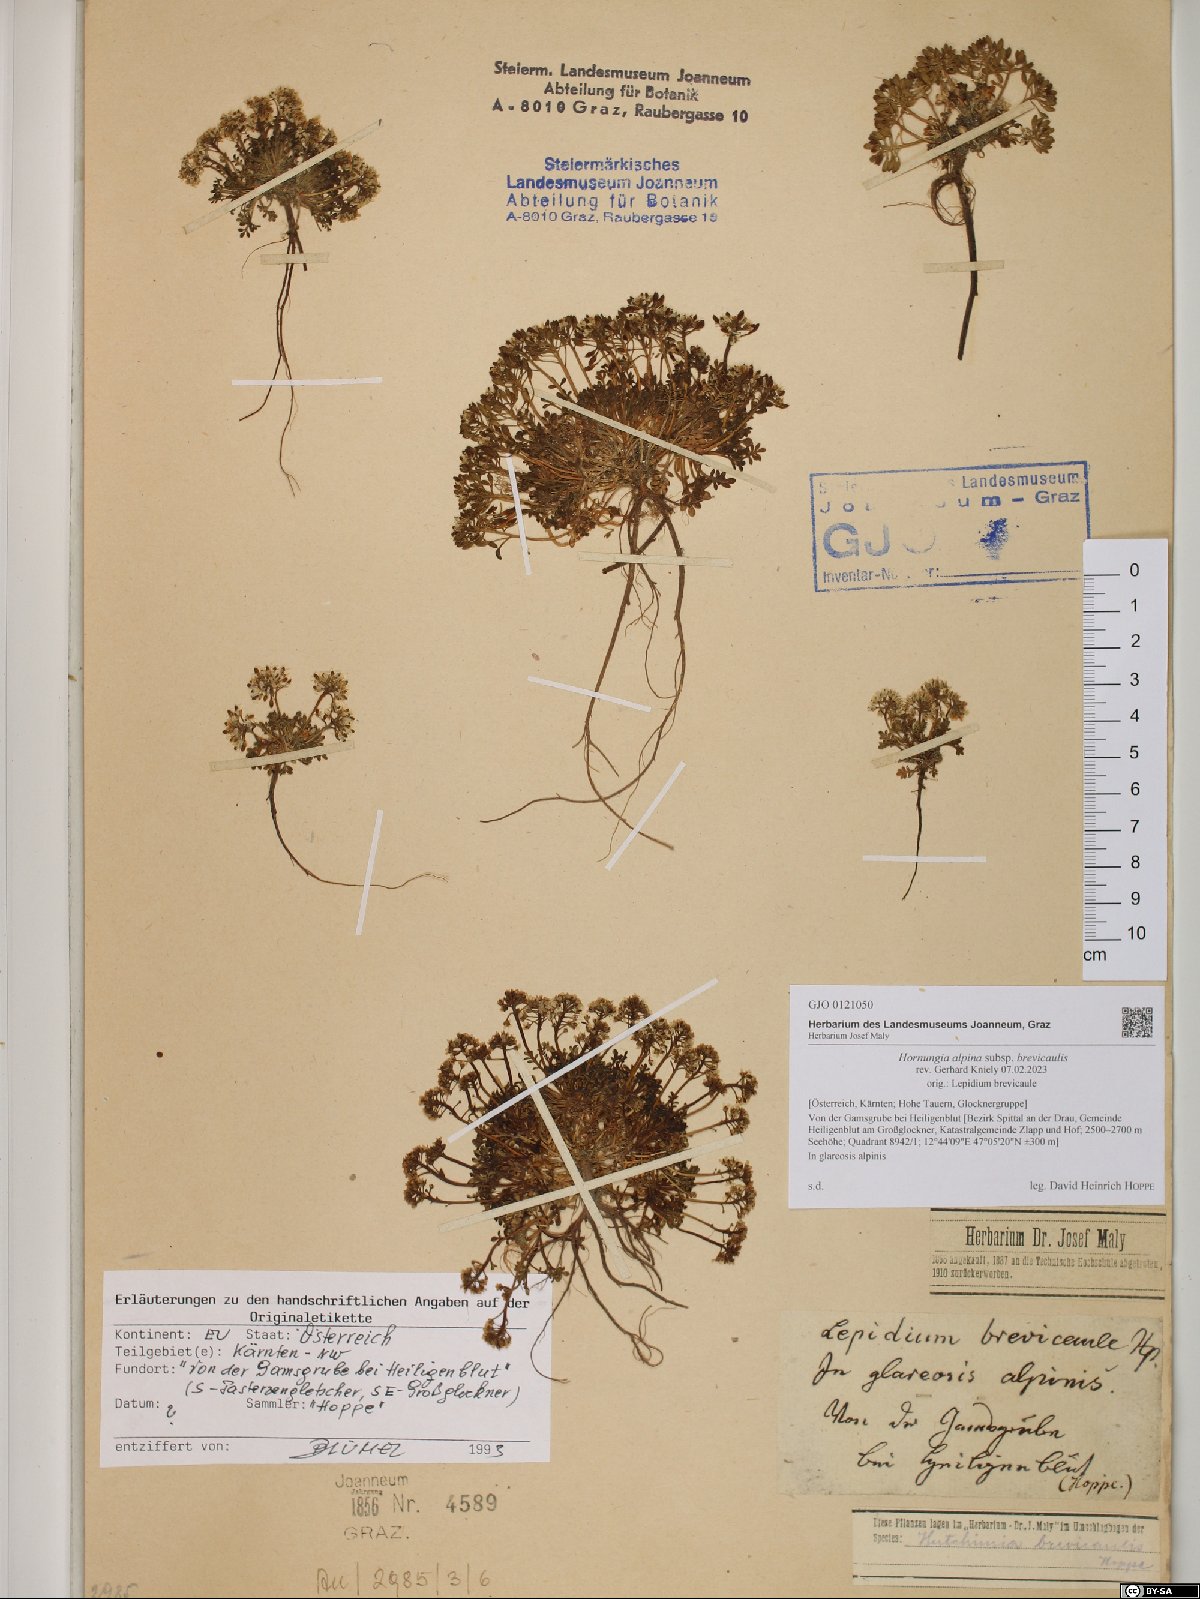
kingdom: Plantae
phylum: Tracheophyta
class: Magnoliopsida
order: Brassicales
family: Brassicaceae
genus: Hornungia
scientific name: Hornungia alpina
